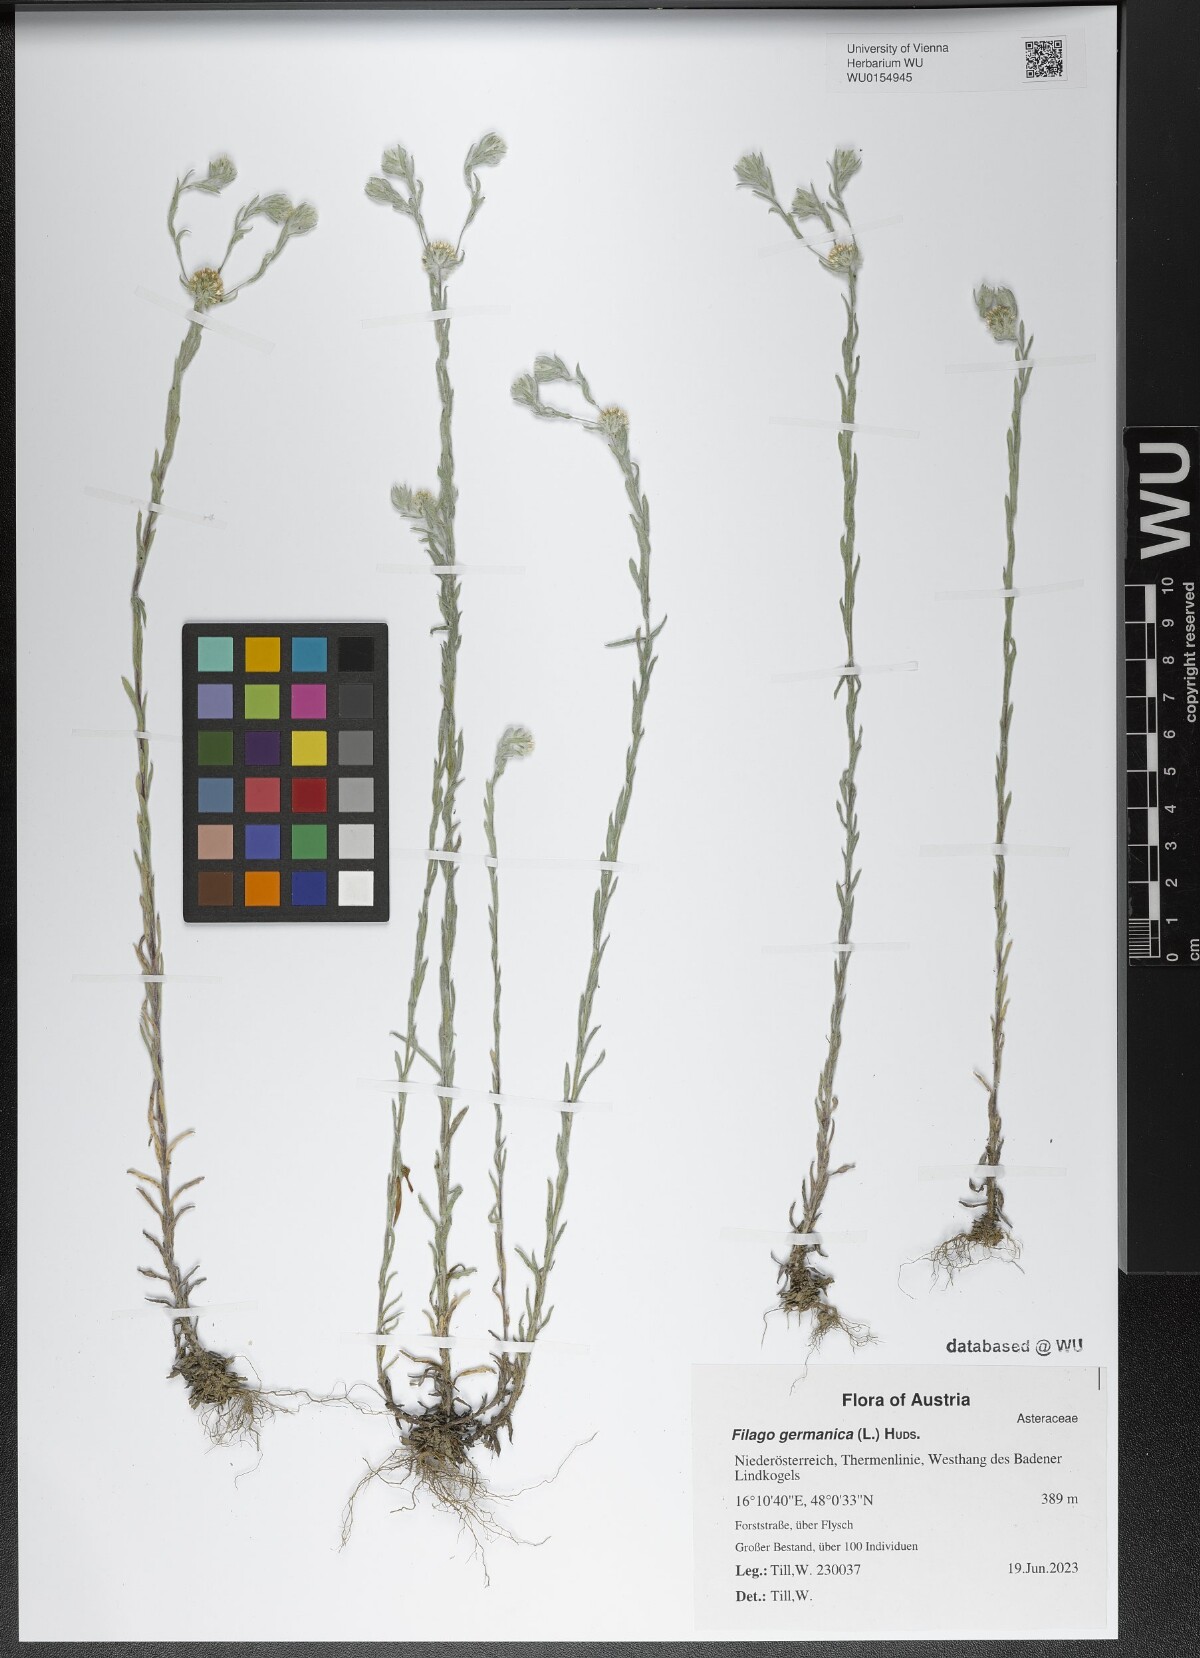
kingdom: Plantae
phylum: Tracheophyta
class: Magnoliopsida
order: Asterales
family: Asteraceae
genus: Filago
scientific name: Filago germanica
